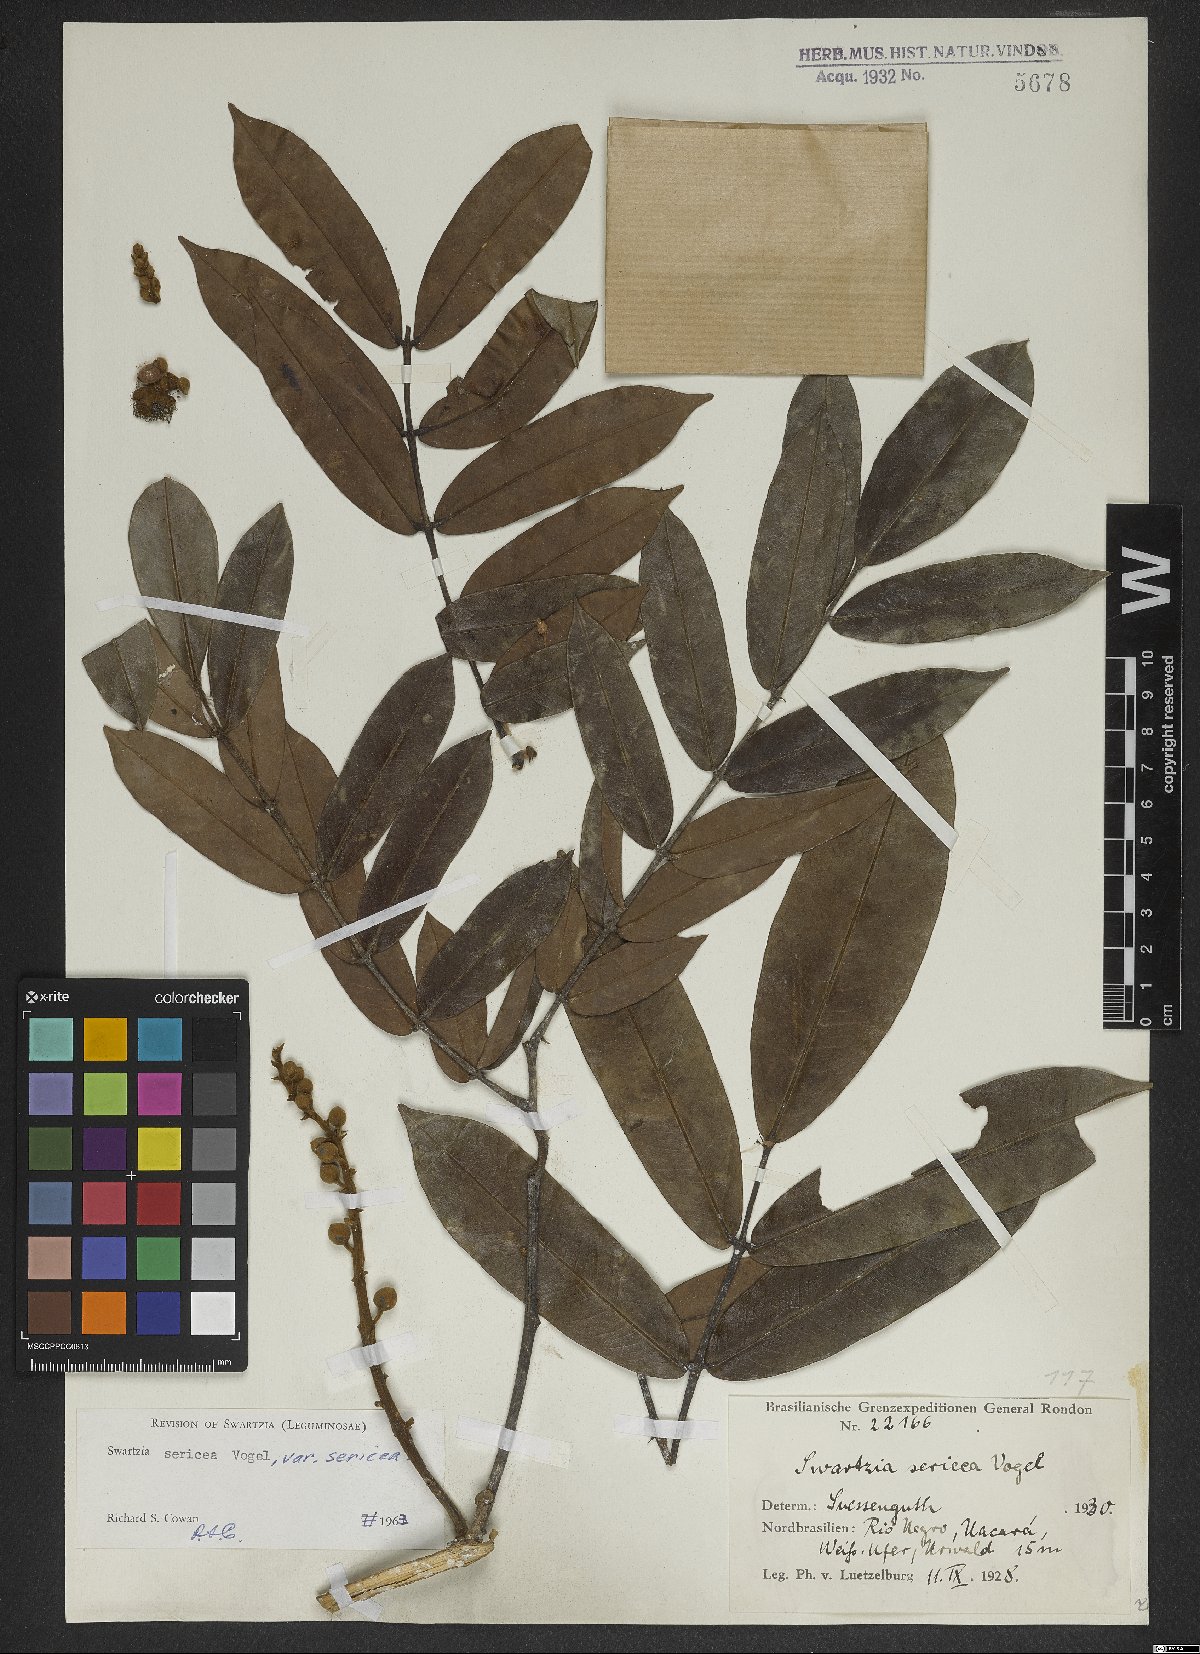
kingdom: Plantae
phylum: Tracheophyta
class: Magnoliopsida
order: Fabales
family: Fabaceae
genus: Swartzia
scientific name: Swartzia sericea
